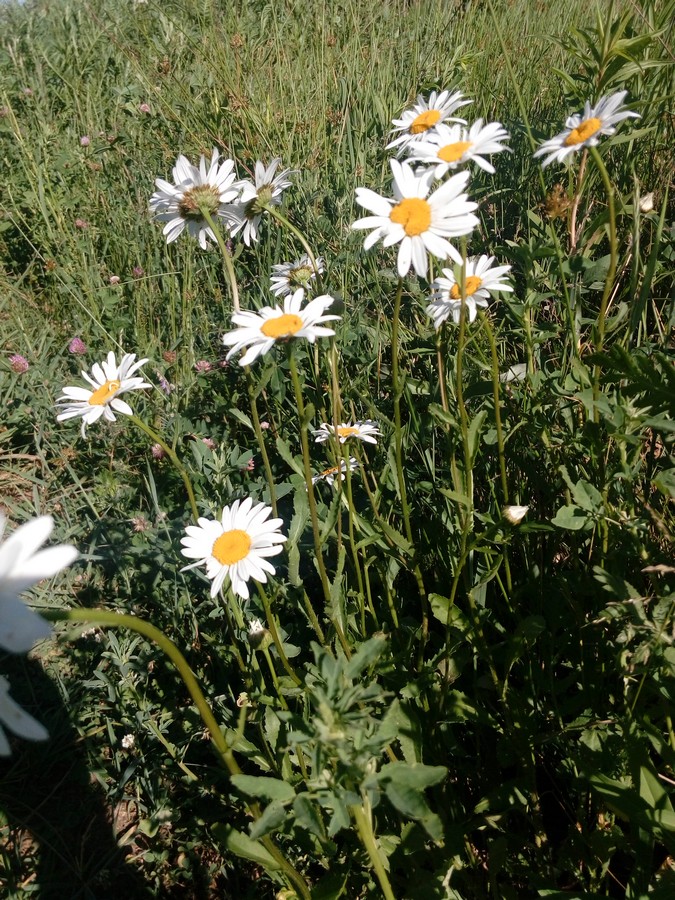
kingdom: Plantae
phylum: Tracheophyta
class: Magnoliopsida
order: Asterales
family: Asteraceae
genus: Leucanthemum
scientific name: Leucanthemum vulgare
